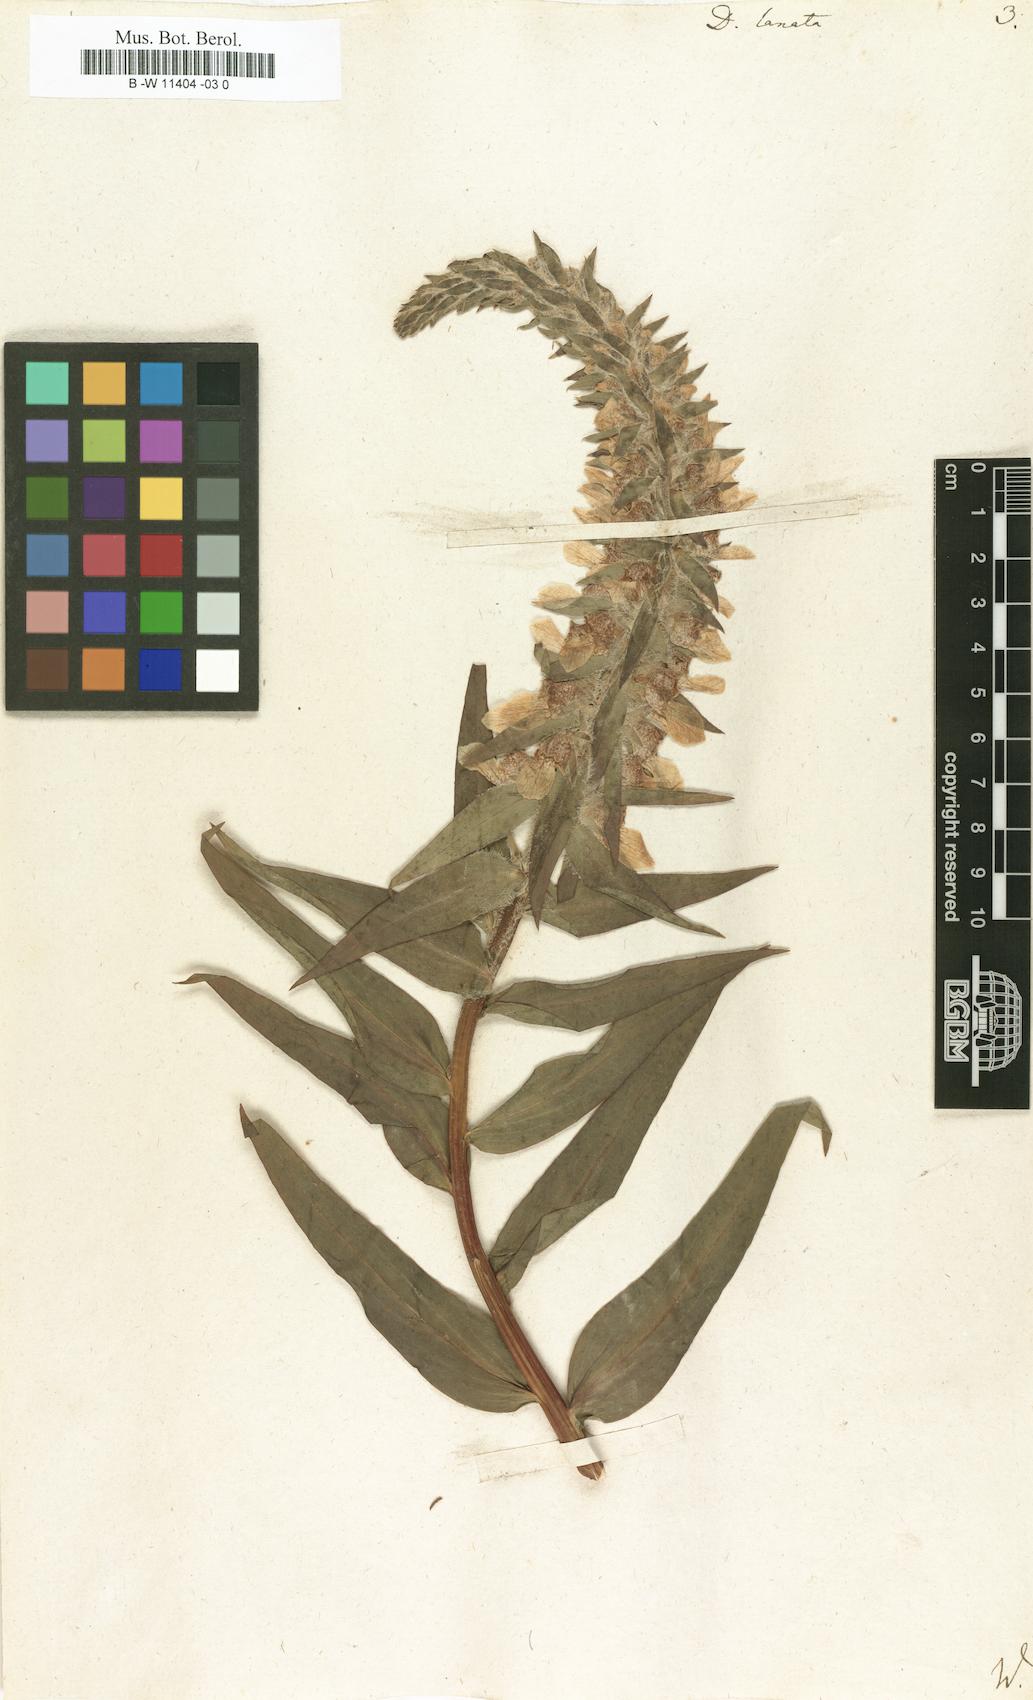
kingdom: Plantae
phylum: Tracheophyta
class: Magnoliopsida
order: Lamiales
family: Plantaginaceae
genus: Digitalis
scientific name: Digitalis lanata
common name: Grecian foxglove
